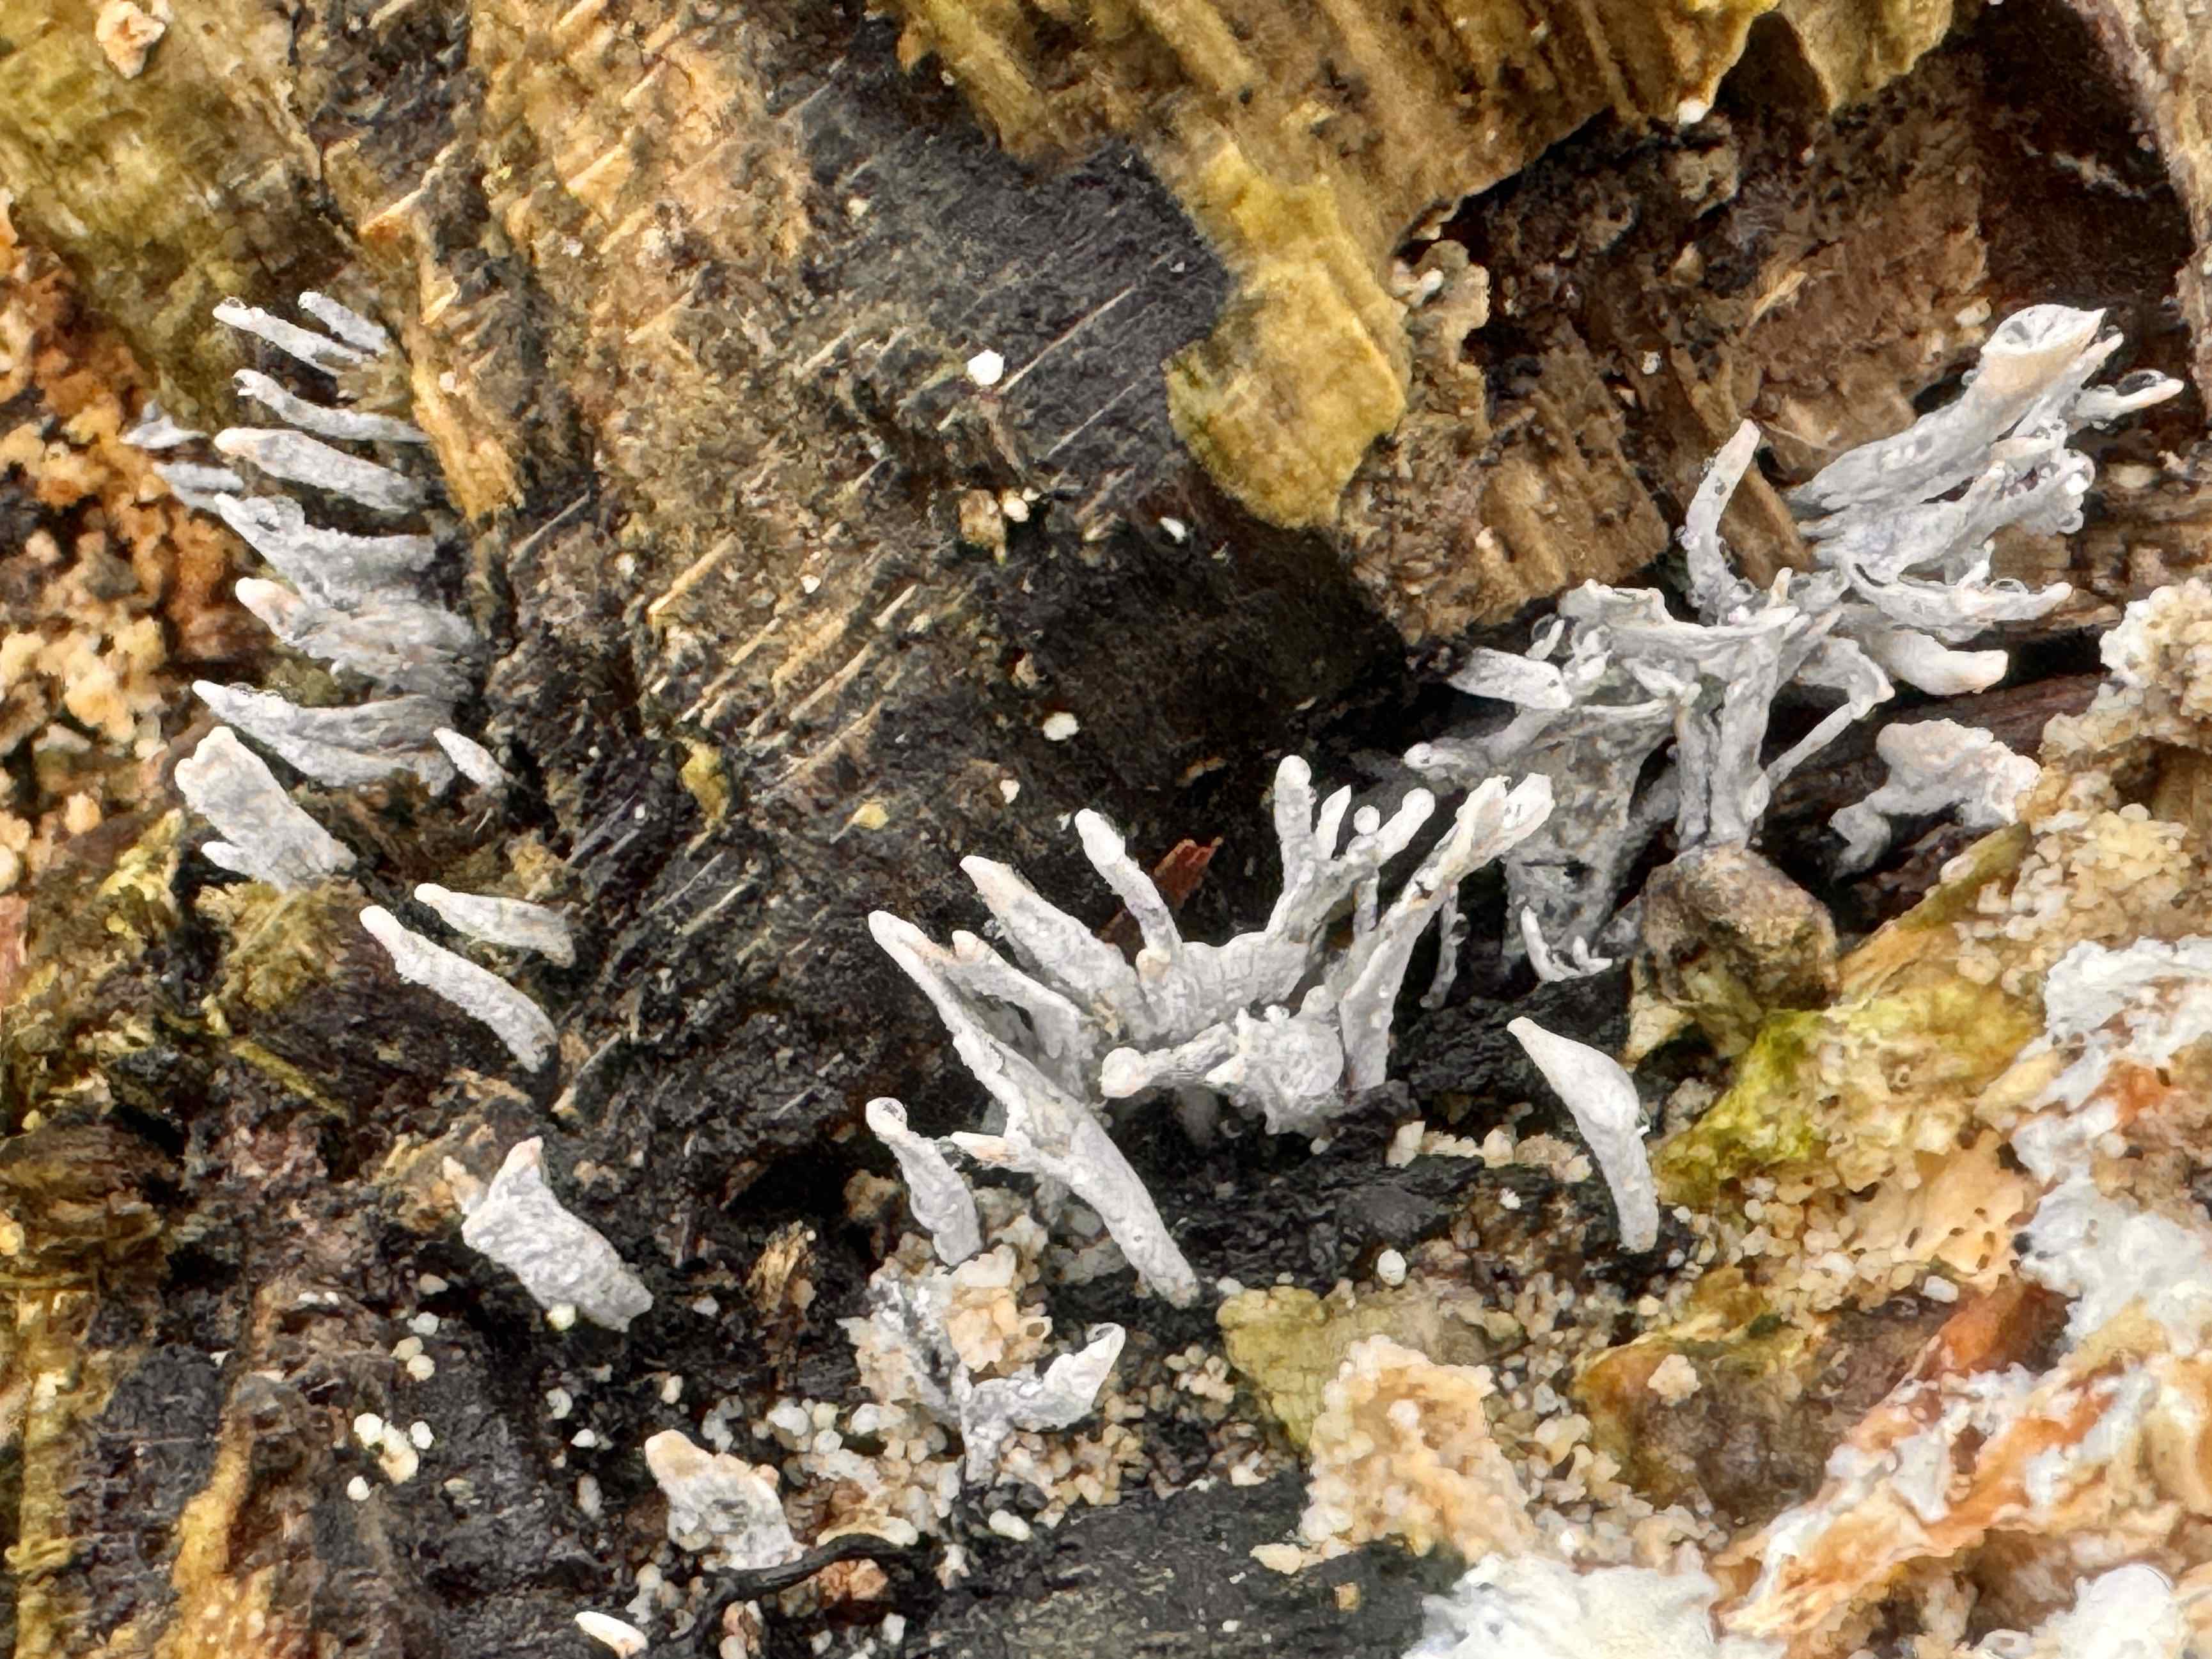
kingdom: Fungi
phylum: Ascomycota
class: Sordariomycetes
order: Xylariales
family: Xylariaceae
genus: Xylaria
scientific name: Xylaria hypoxylon
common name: grenet stødsvamp
